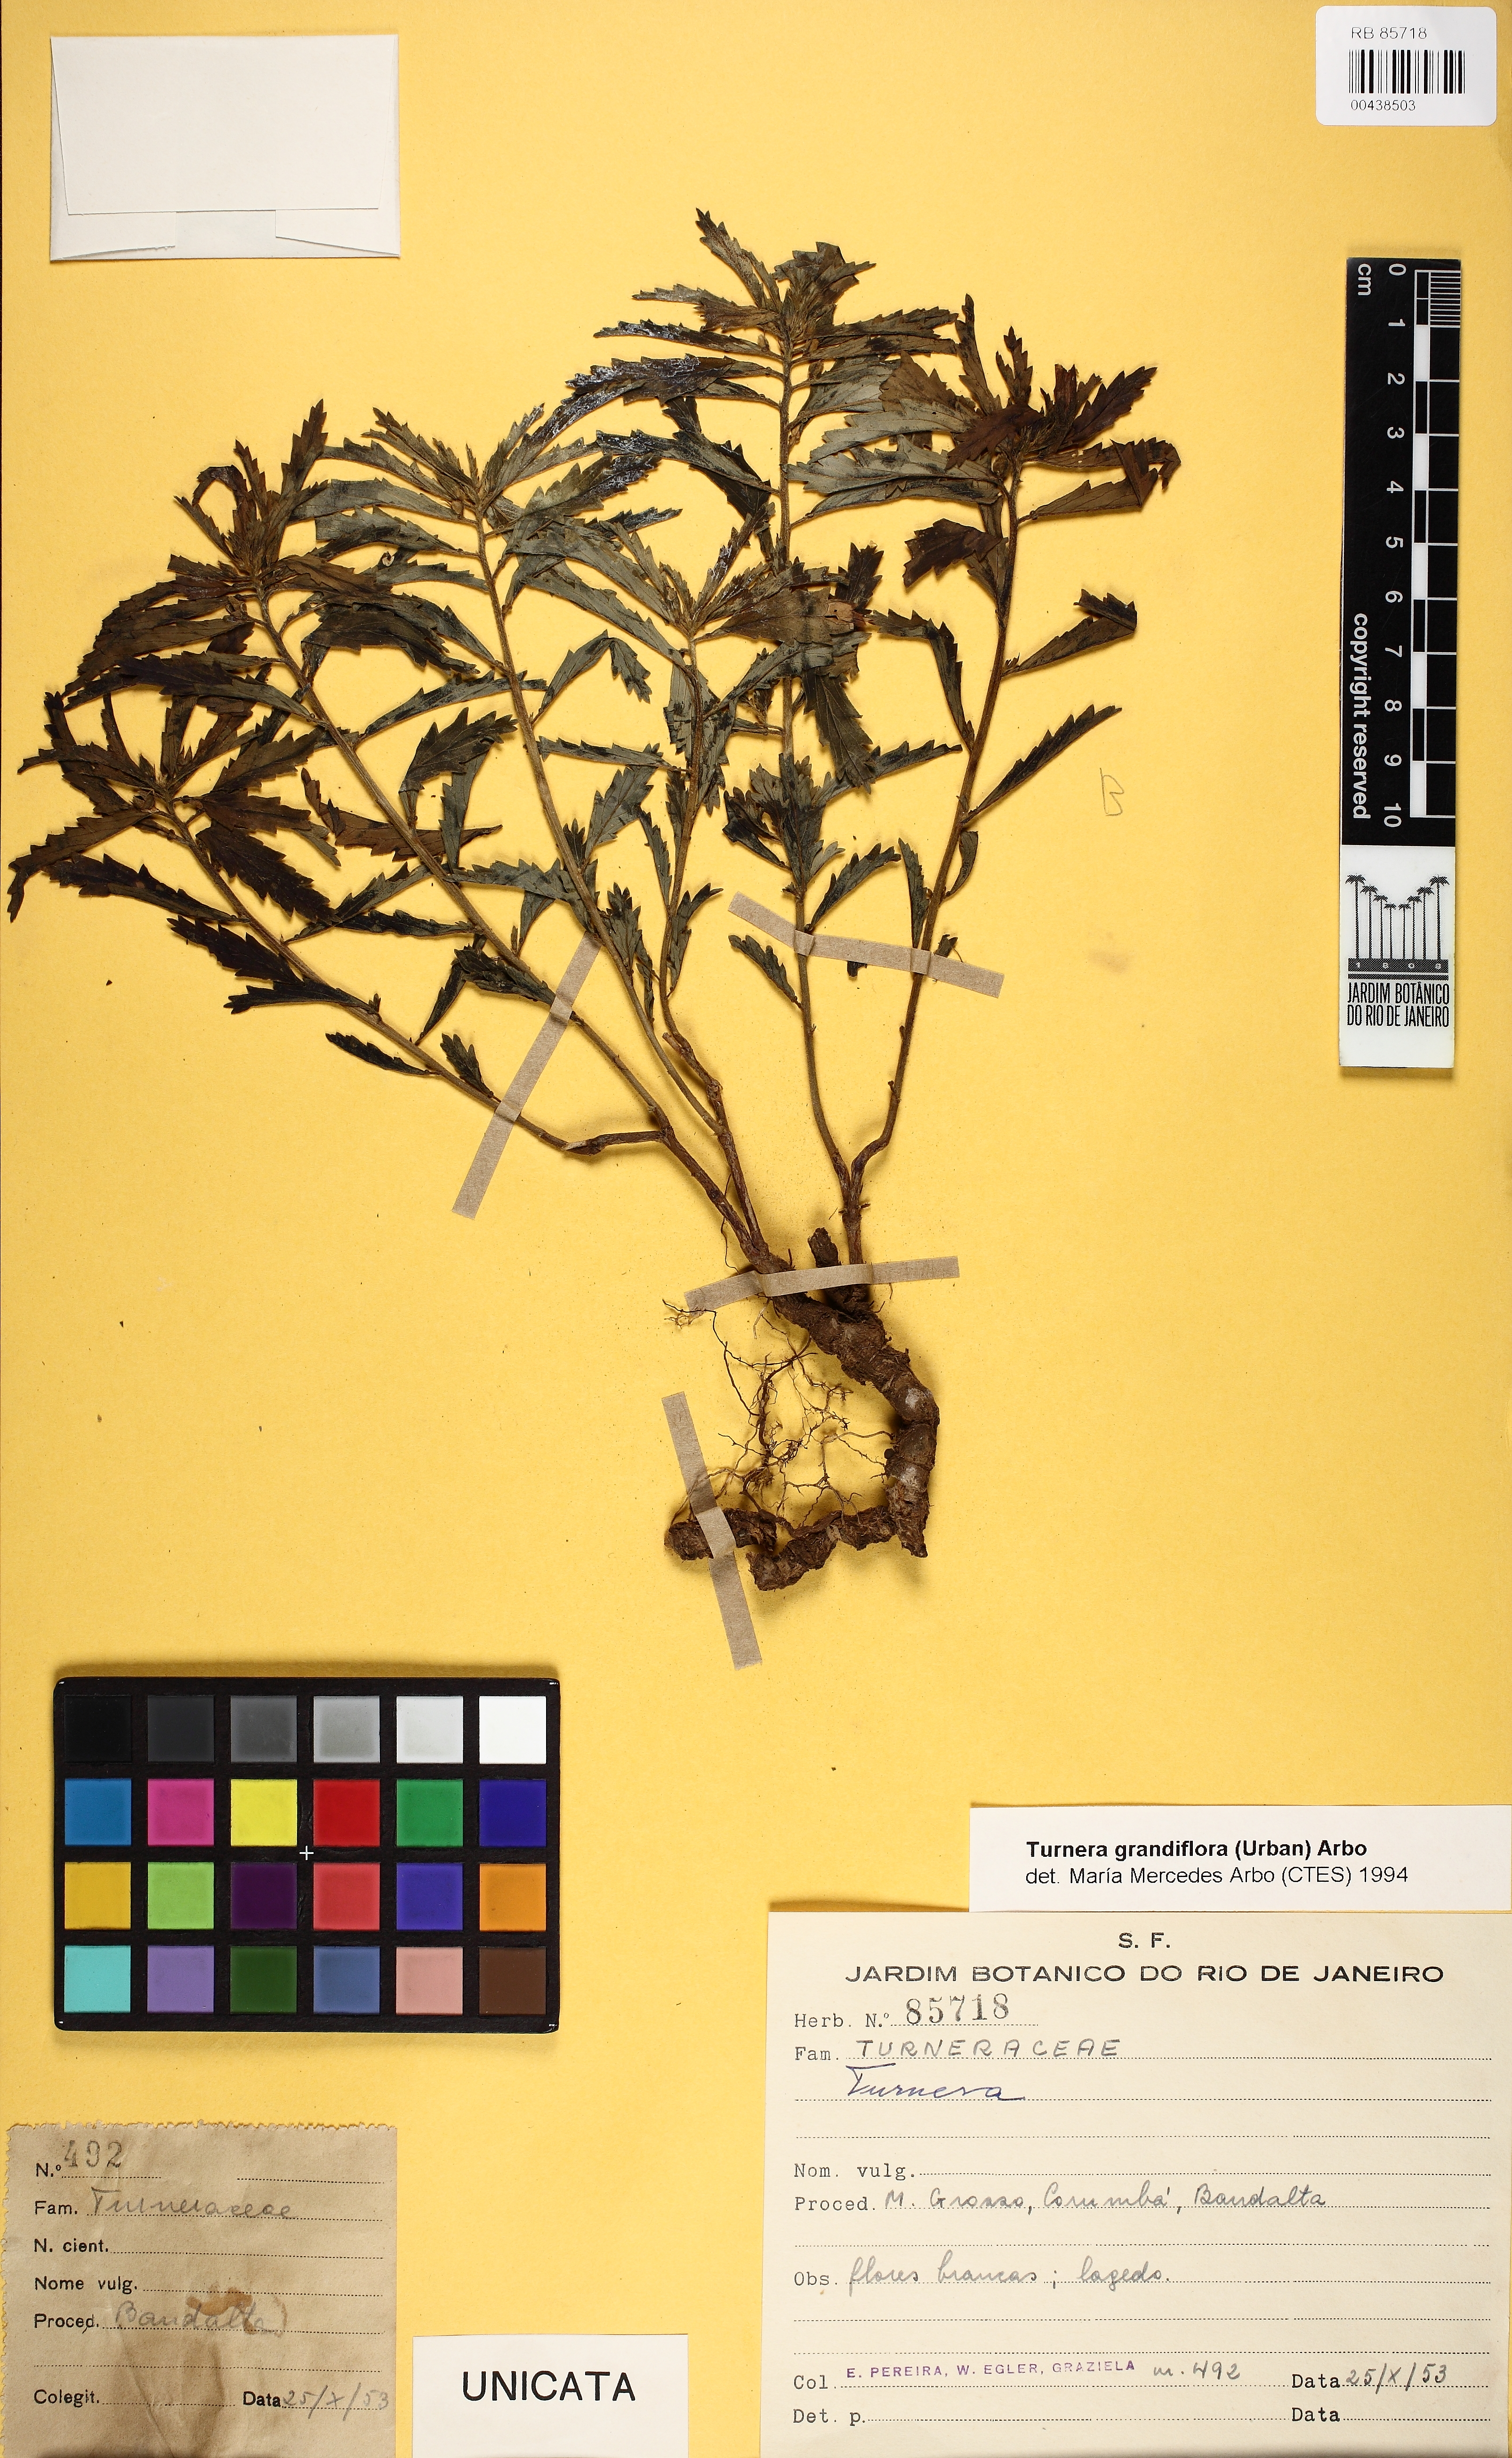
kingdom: Plantae
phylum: Tracheophyta
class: Magnoliopsida
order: Malpighiales
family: Turneraceae
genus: Turnera
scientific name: Turnera grandiflora
